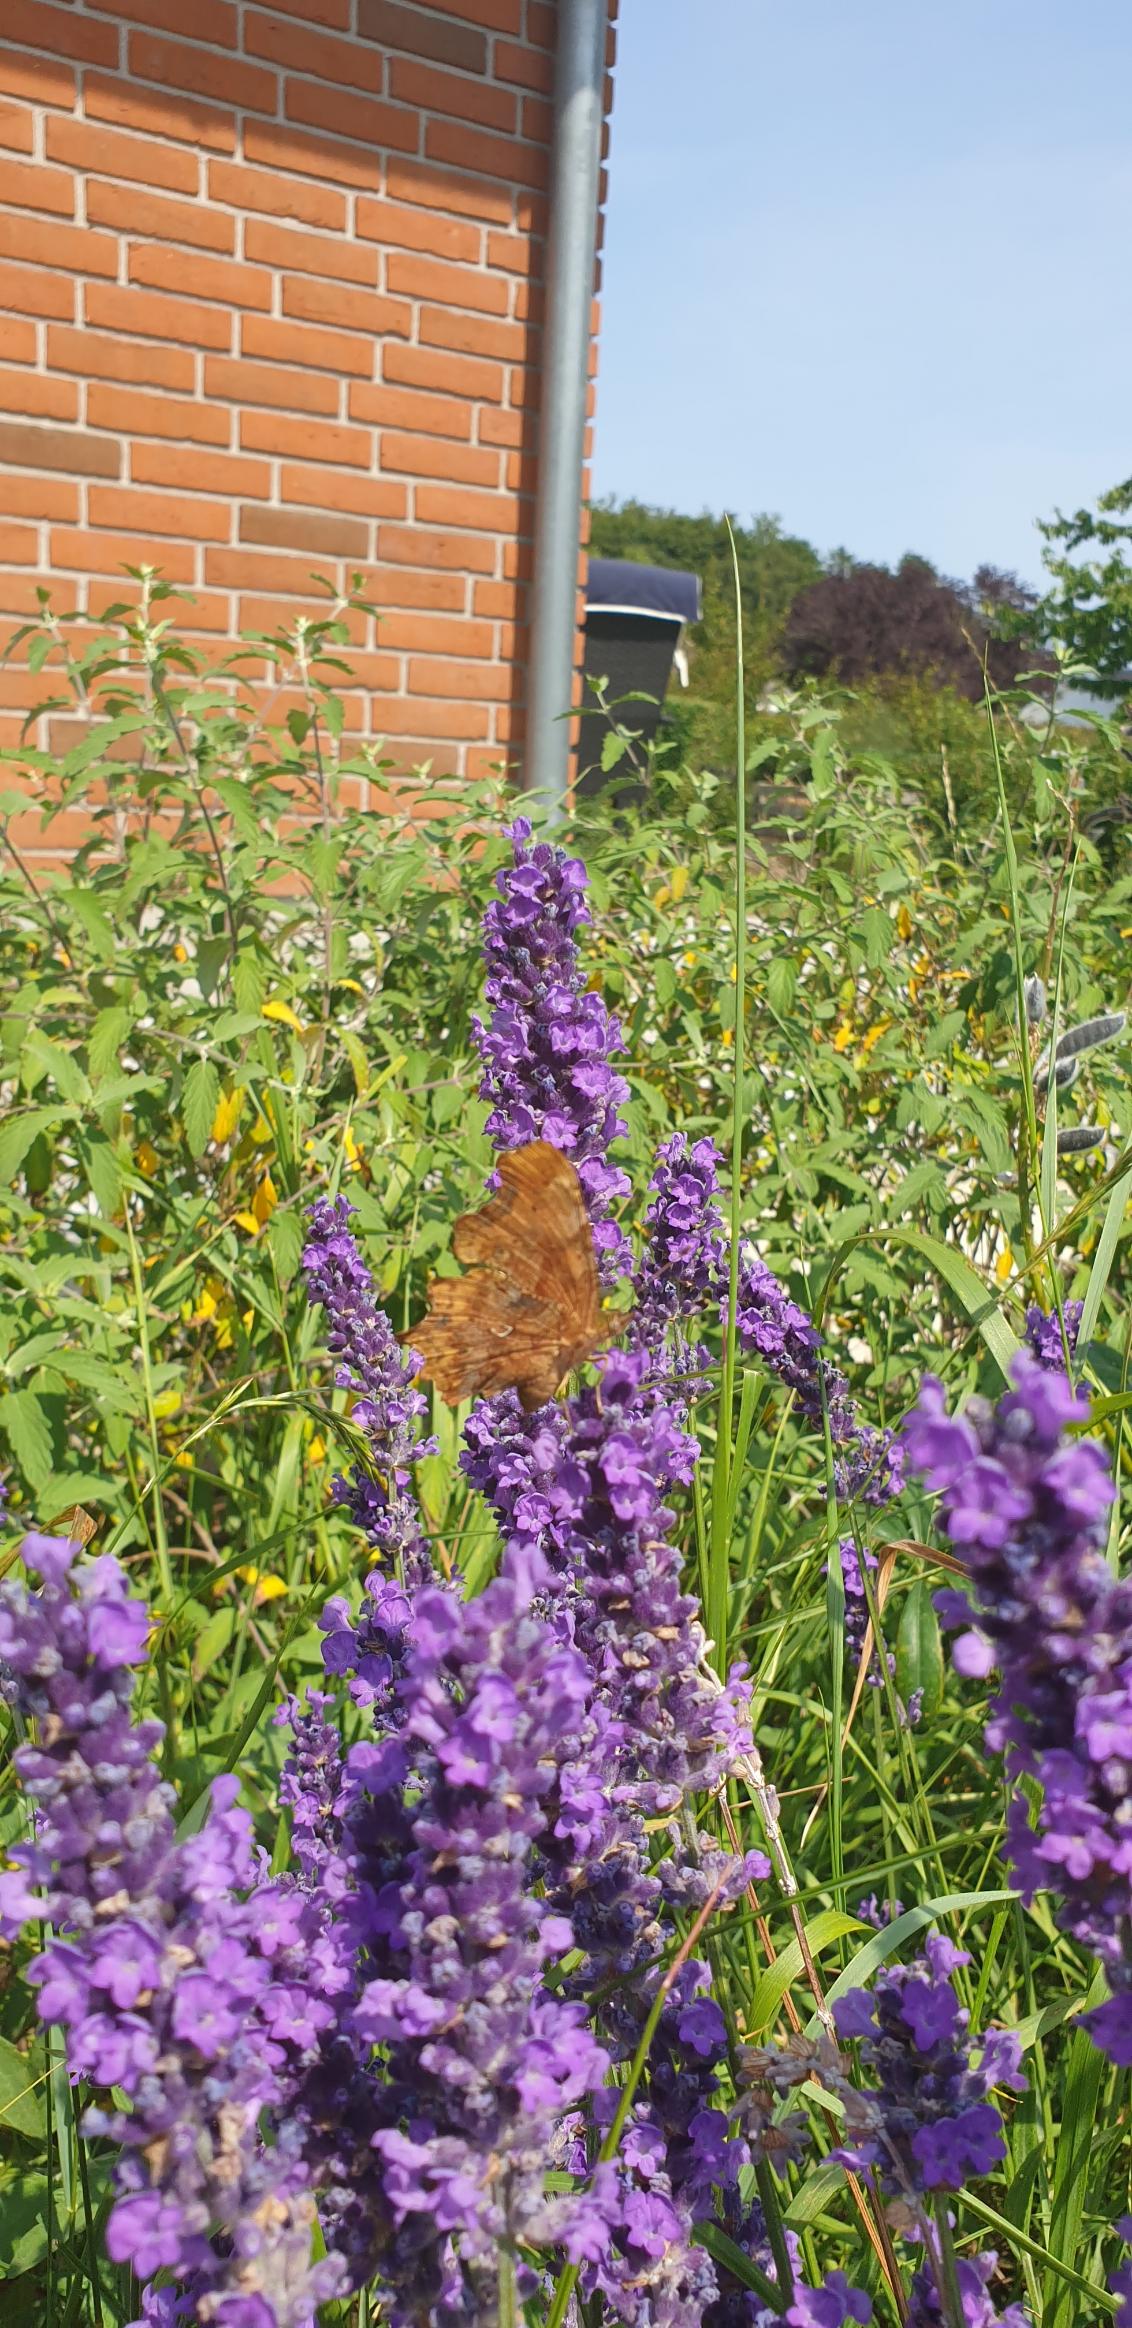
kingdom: Animalia
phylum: Arthropoda
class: Insecta
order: Lepidoptera
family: Nymphalidae
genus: Polygonia
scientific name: Polygonia c-album
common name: Det hvide C
